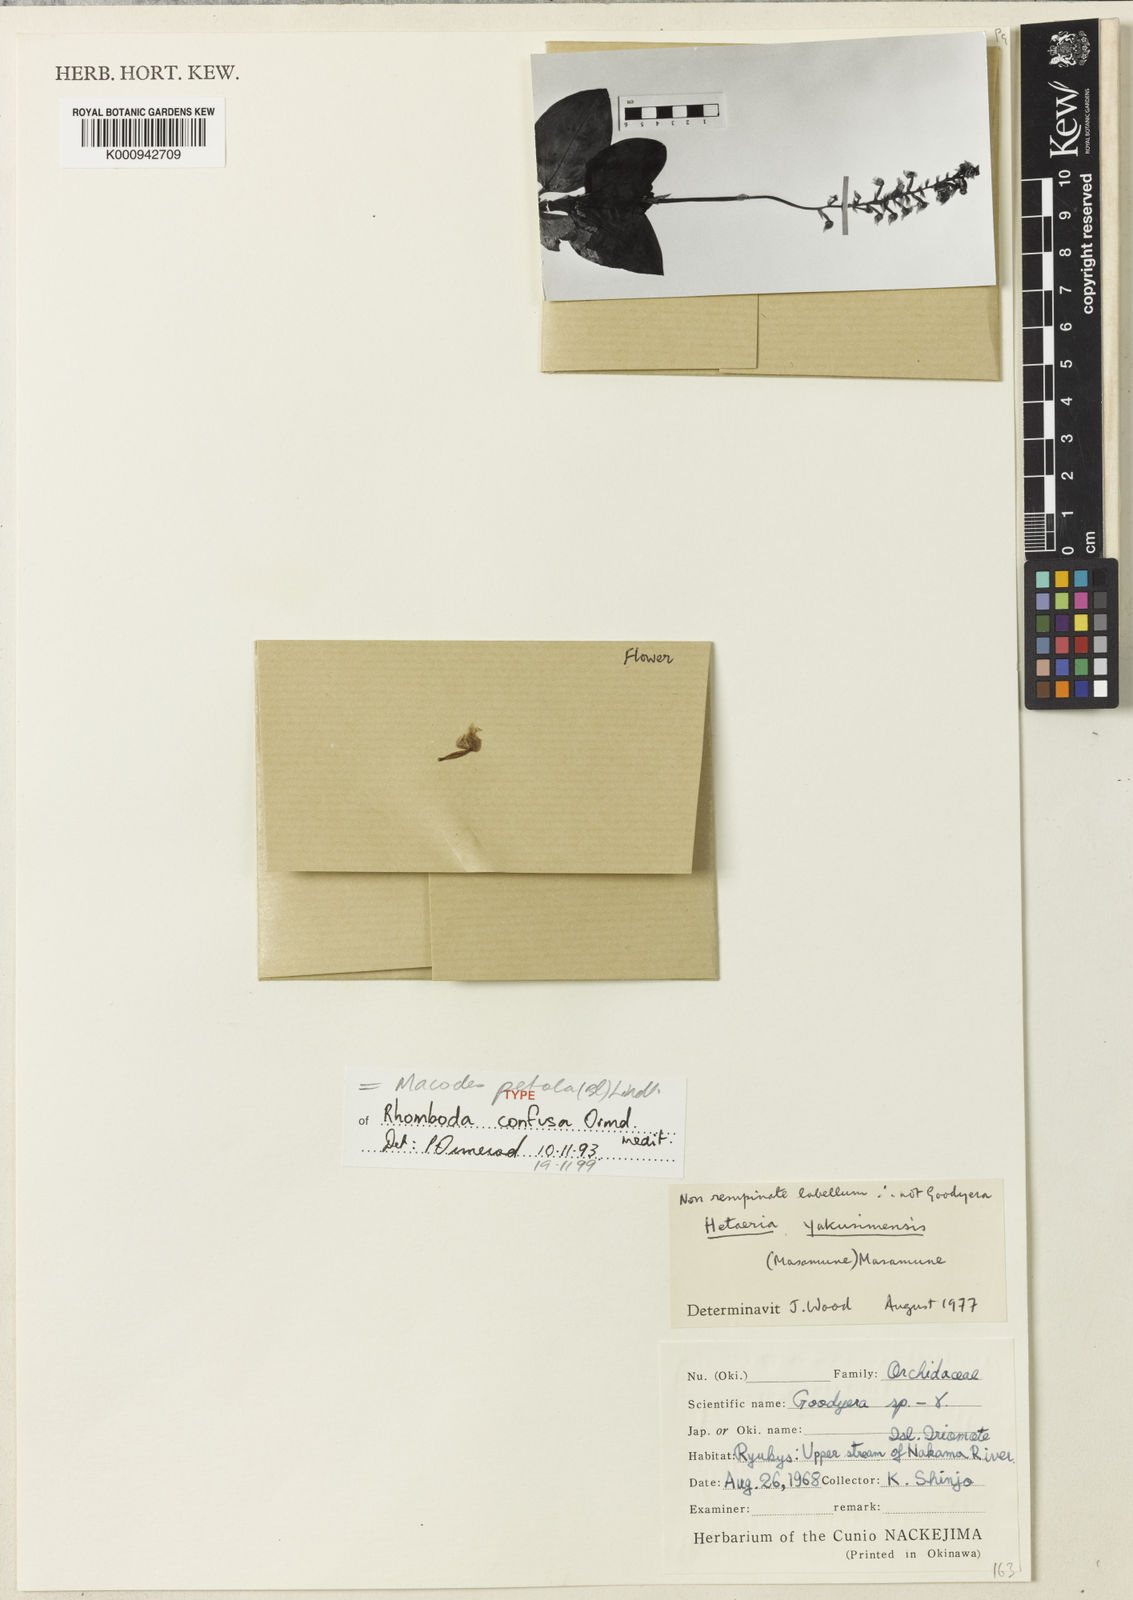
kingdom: Plantae
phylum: Tracheophyta
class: Liliopsida
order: Asparagales
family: Orchidaceae
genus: Macodes
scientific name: Macodes petola
